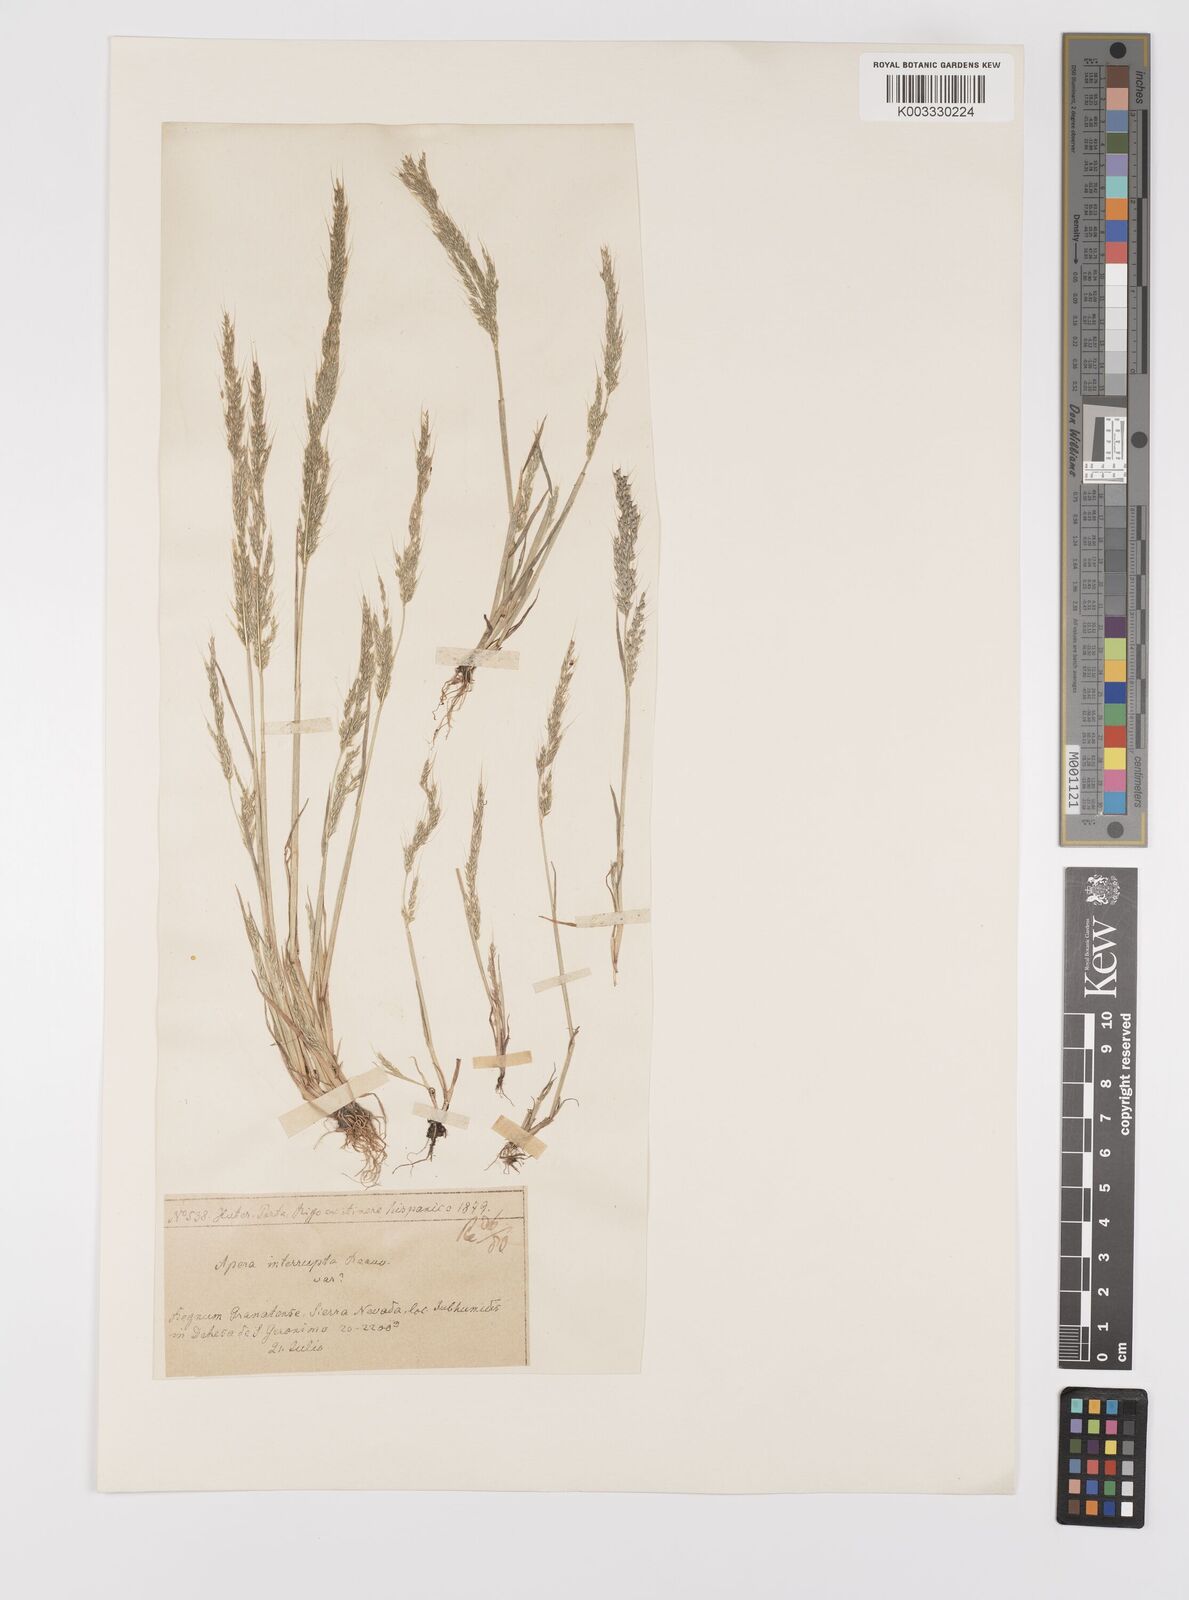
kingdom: Plantae
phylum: Tracheophyta
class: Liliopsida
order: Poales
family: Poaceae
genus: Apera
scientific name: Apera interrupta
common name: Dense silky-bent
